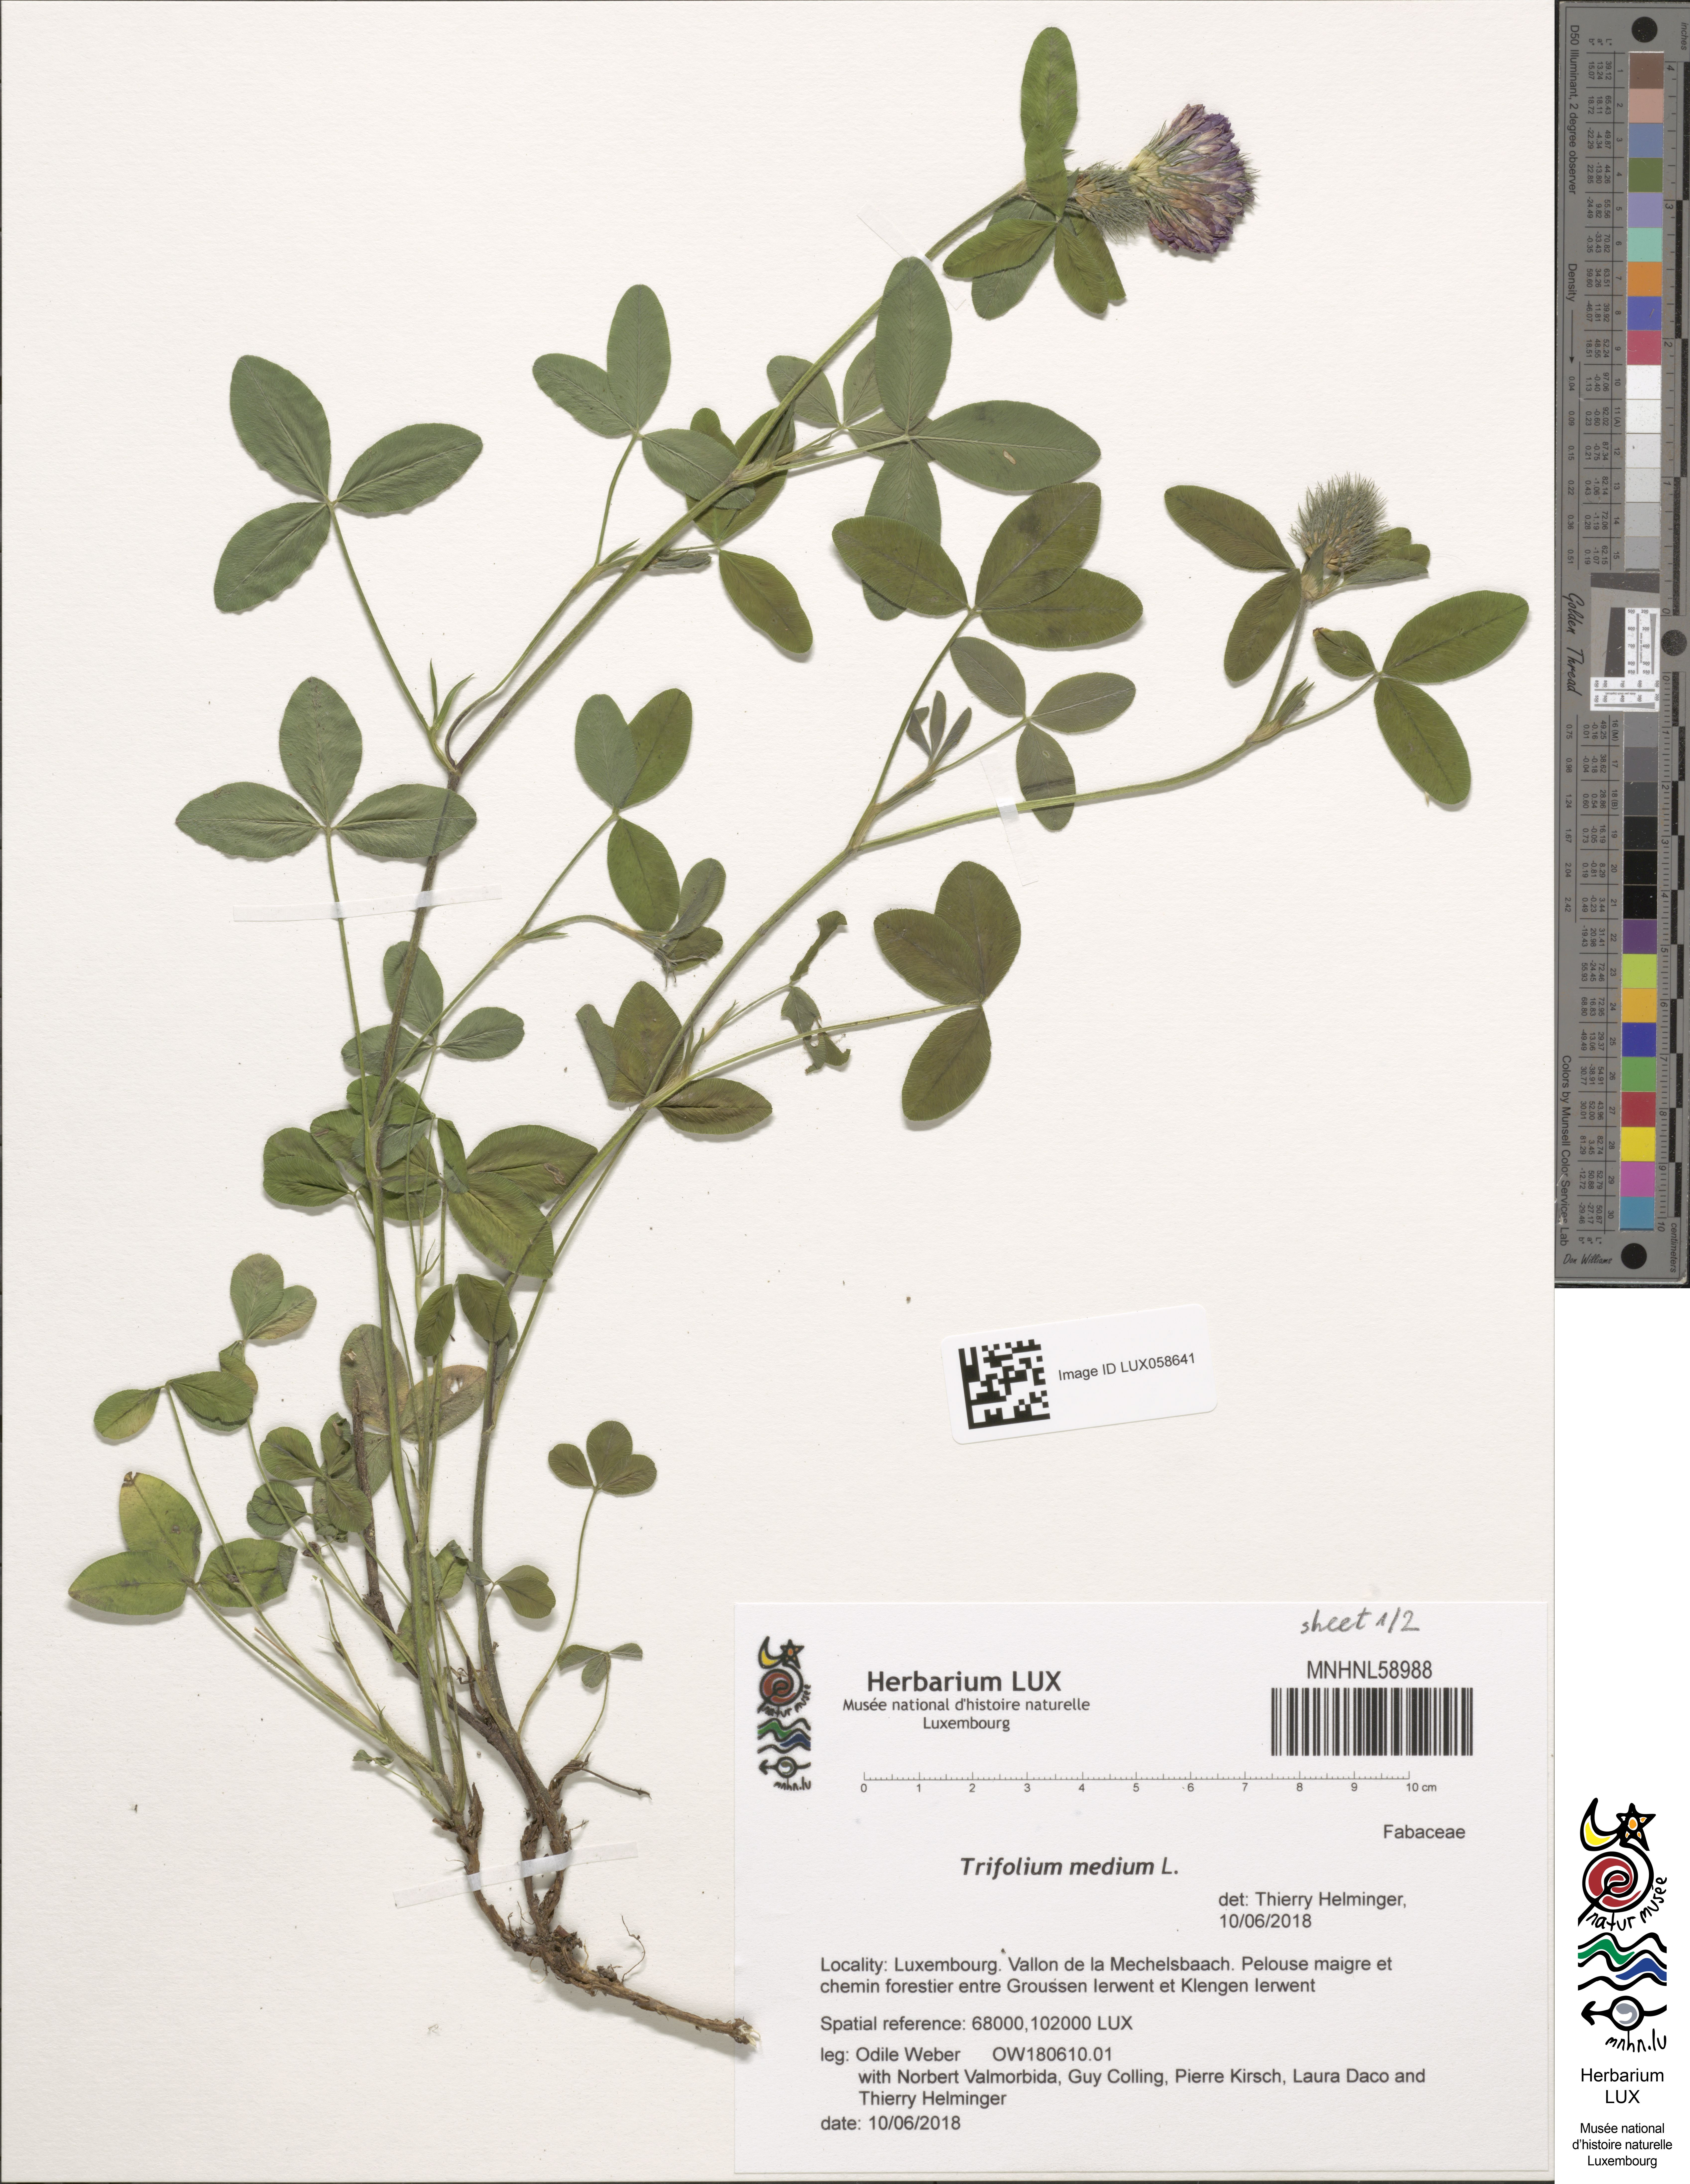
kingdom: Plantae
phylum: Tracheophyta
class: Magnoliopsida
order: Fabales
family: Fabaceae
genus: Trifolium
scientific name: Trifolium medium
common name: Zigzag clover
